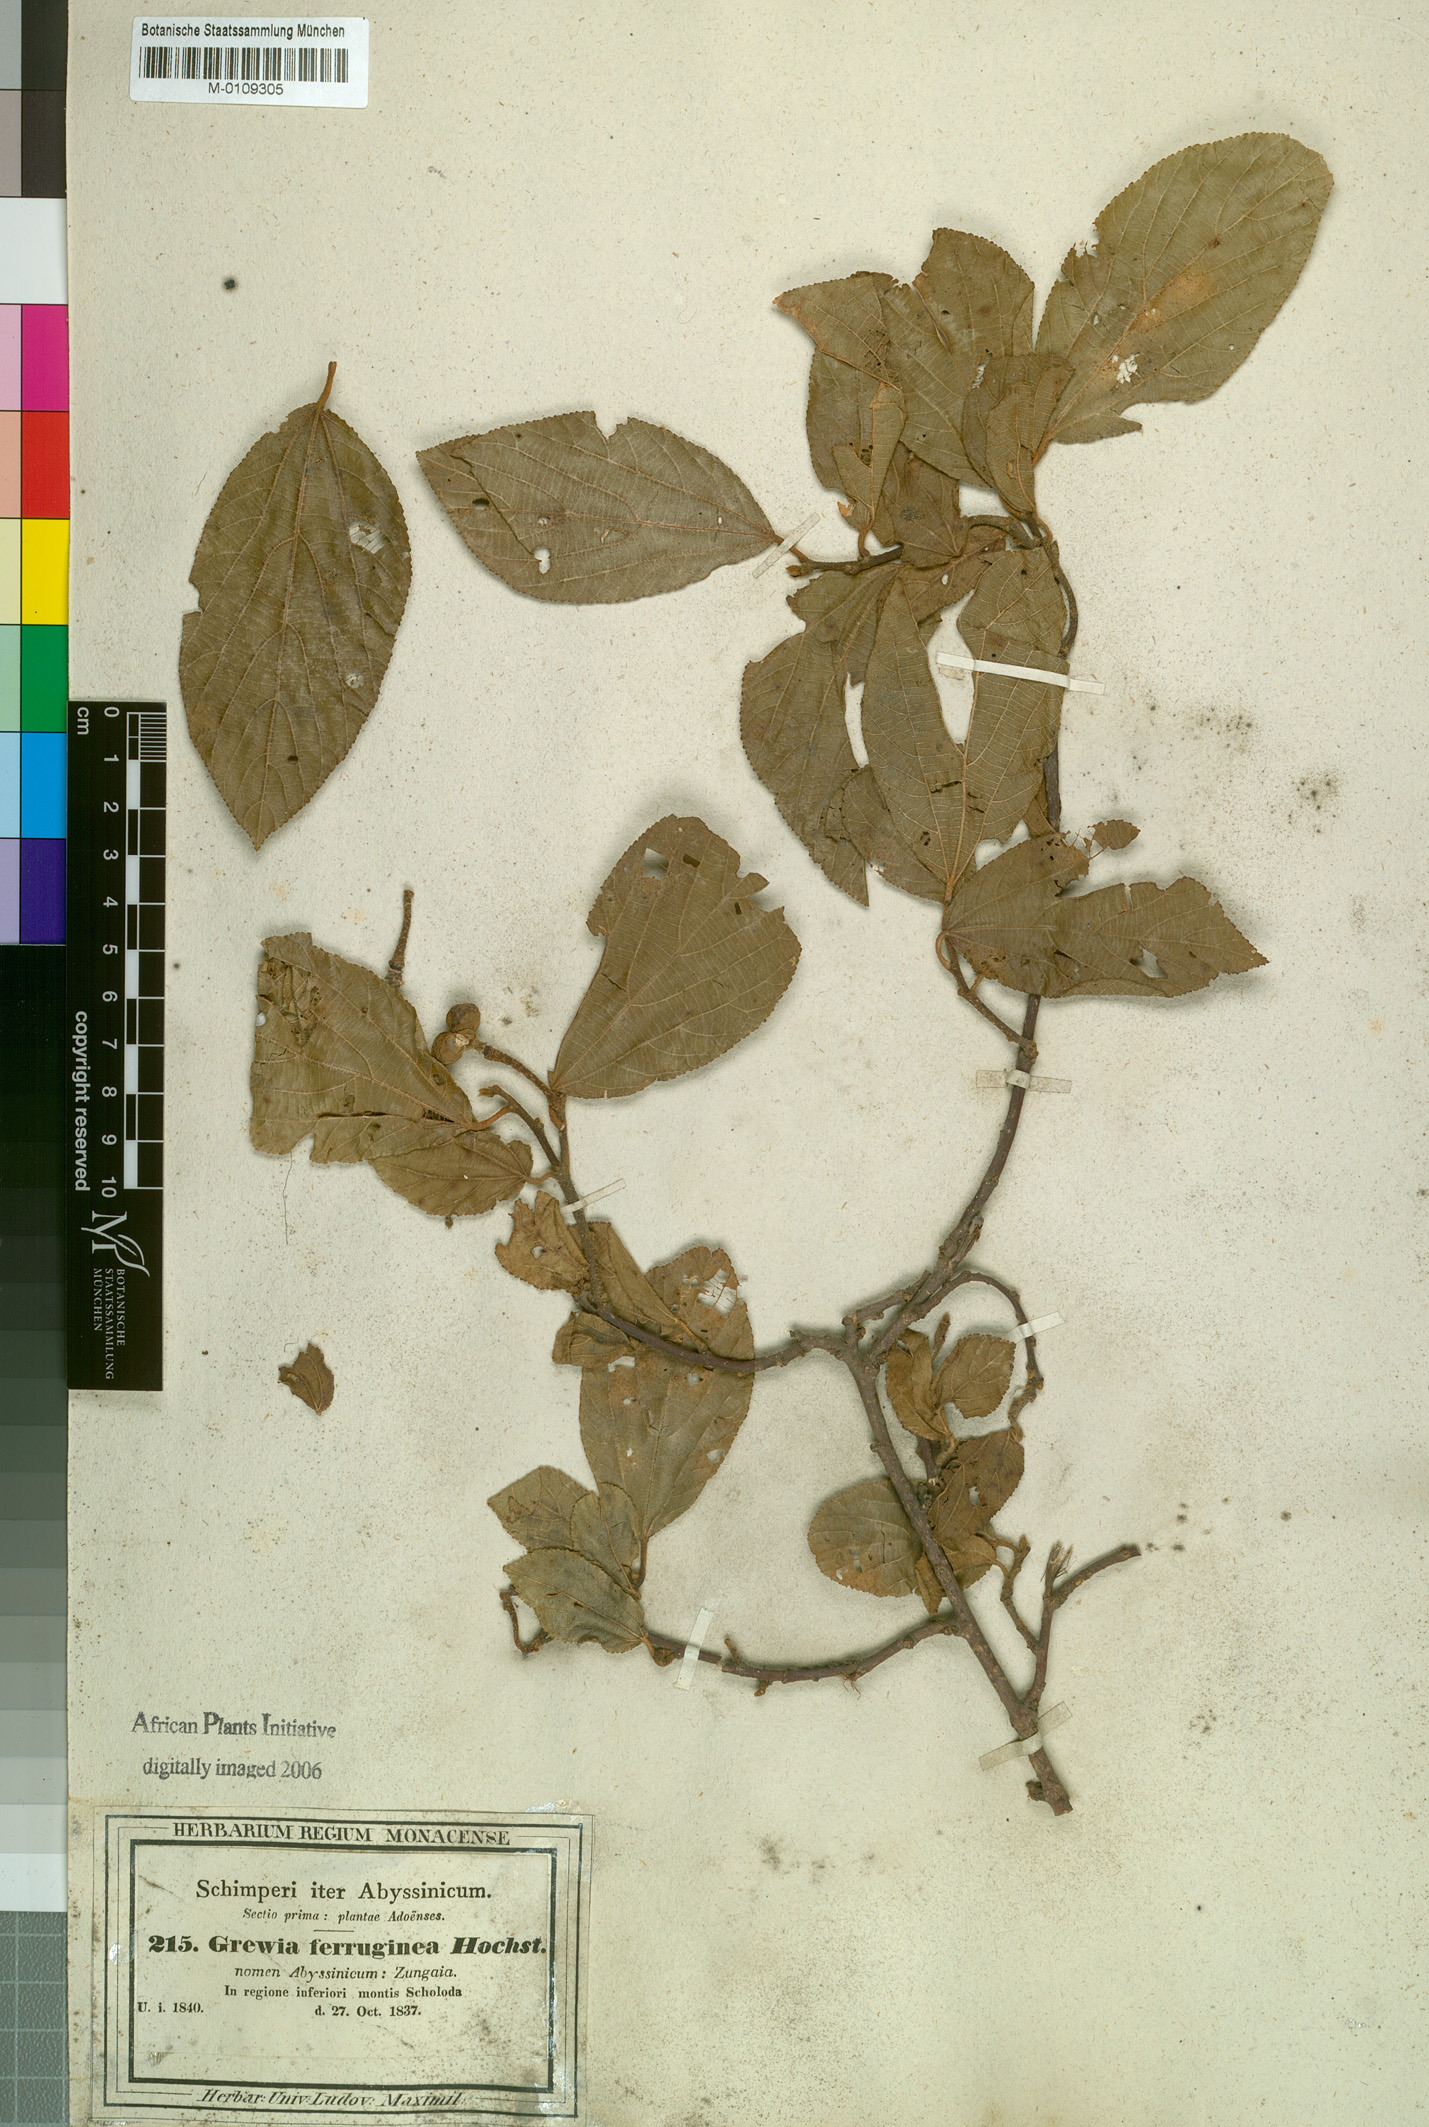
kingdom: Plantae
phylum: Tracheophyta
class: Magnoliopsida
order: Malvales
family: Malvaceae
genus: Grewia
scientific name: Grewia ferruginea
